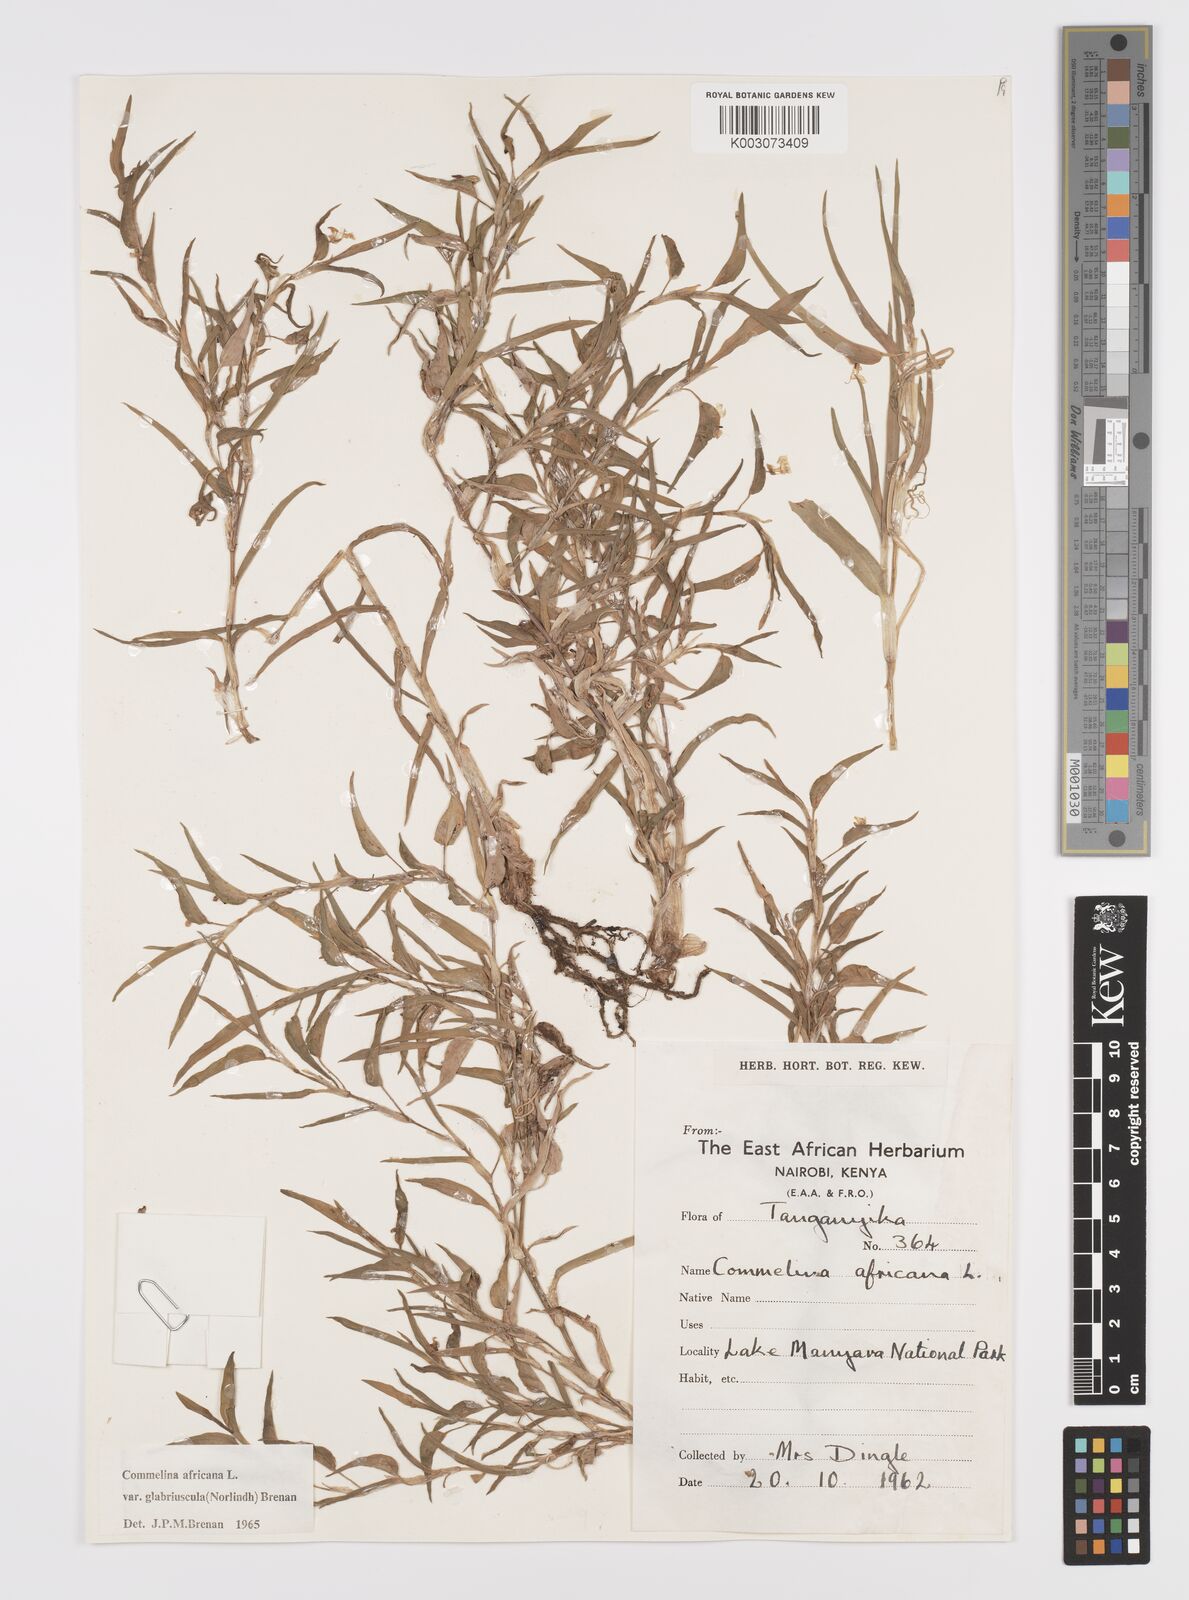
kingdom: Plantae
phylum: Tracheophyta
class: Liliopsida
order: Commelinales
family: Commelinaceae
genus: Commelina
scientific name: Commelina africana
